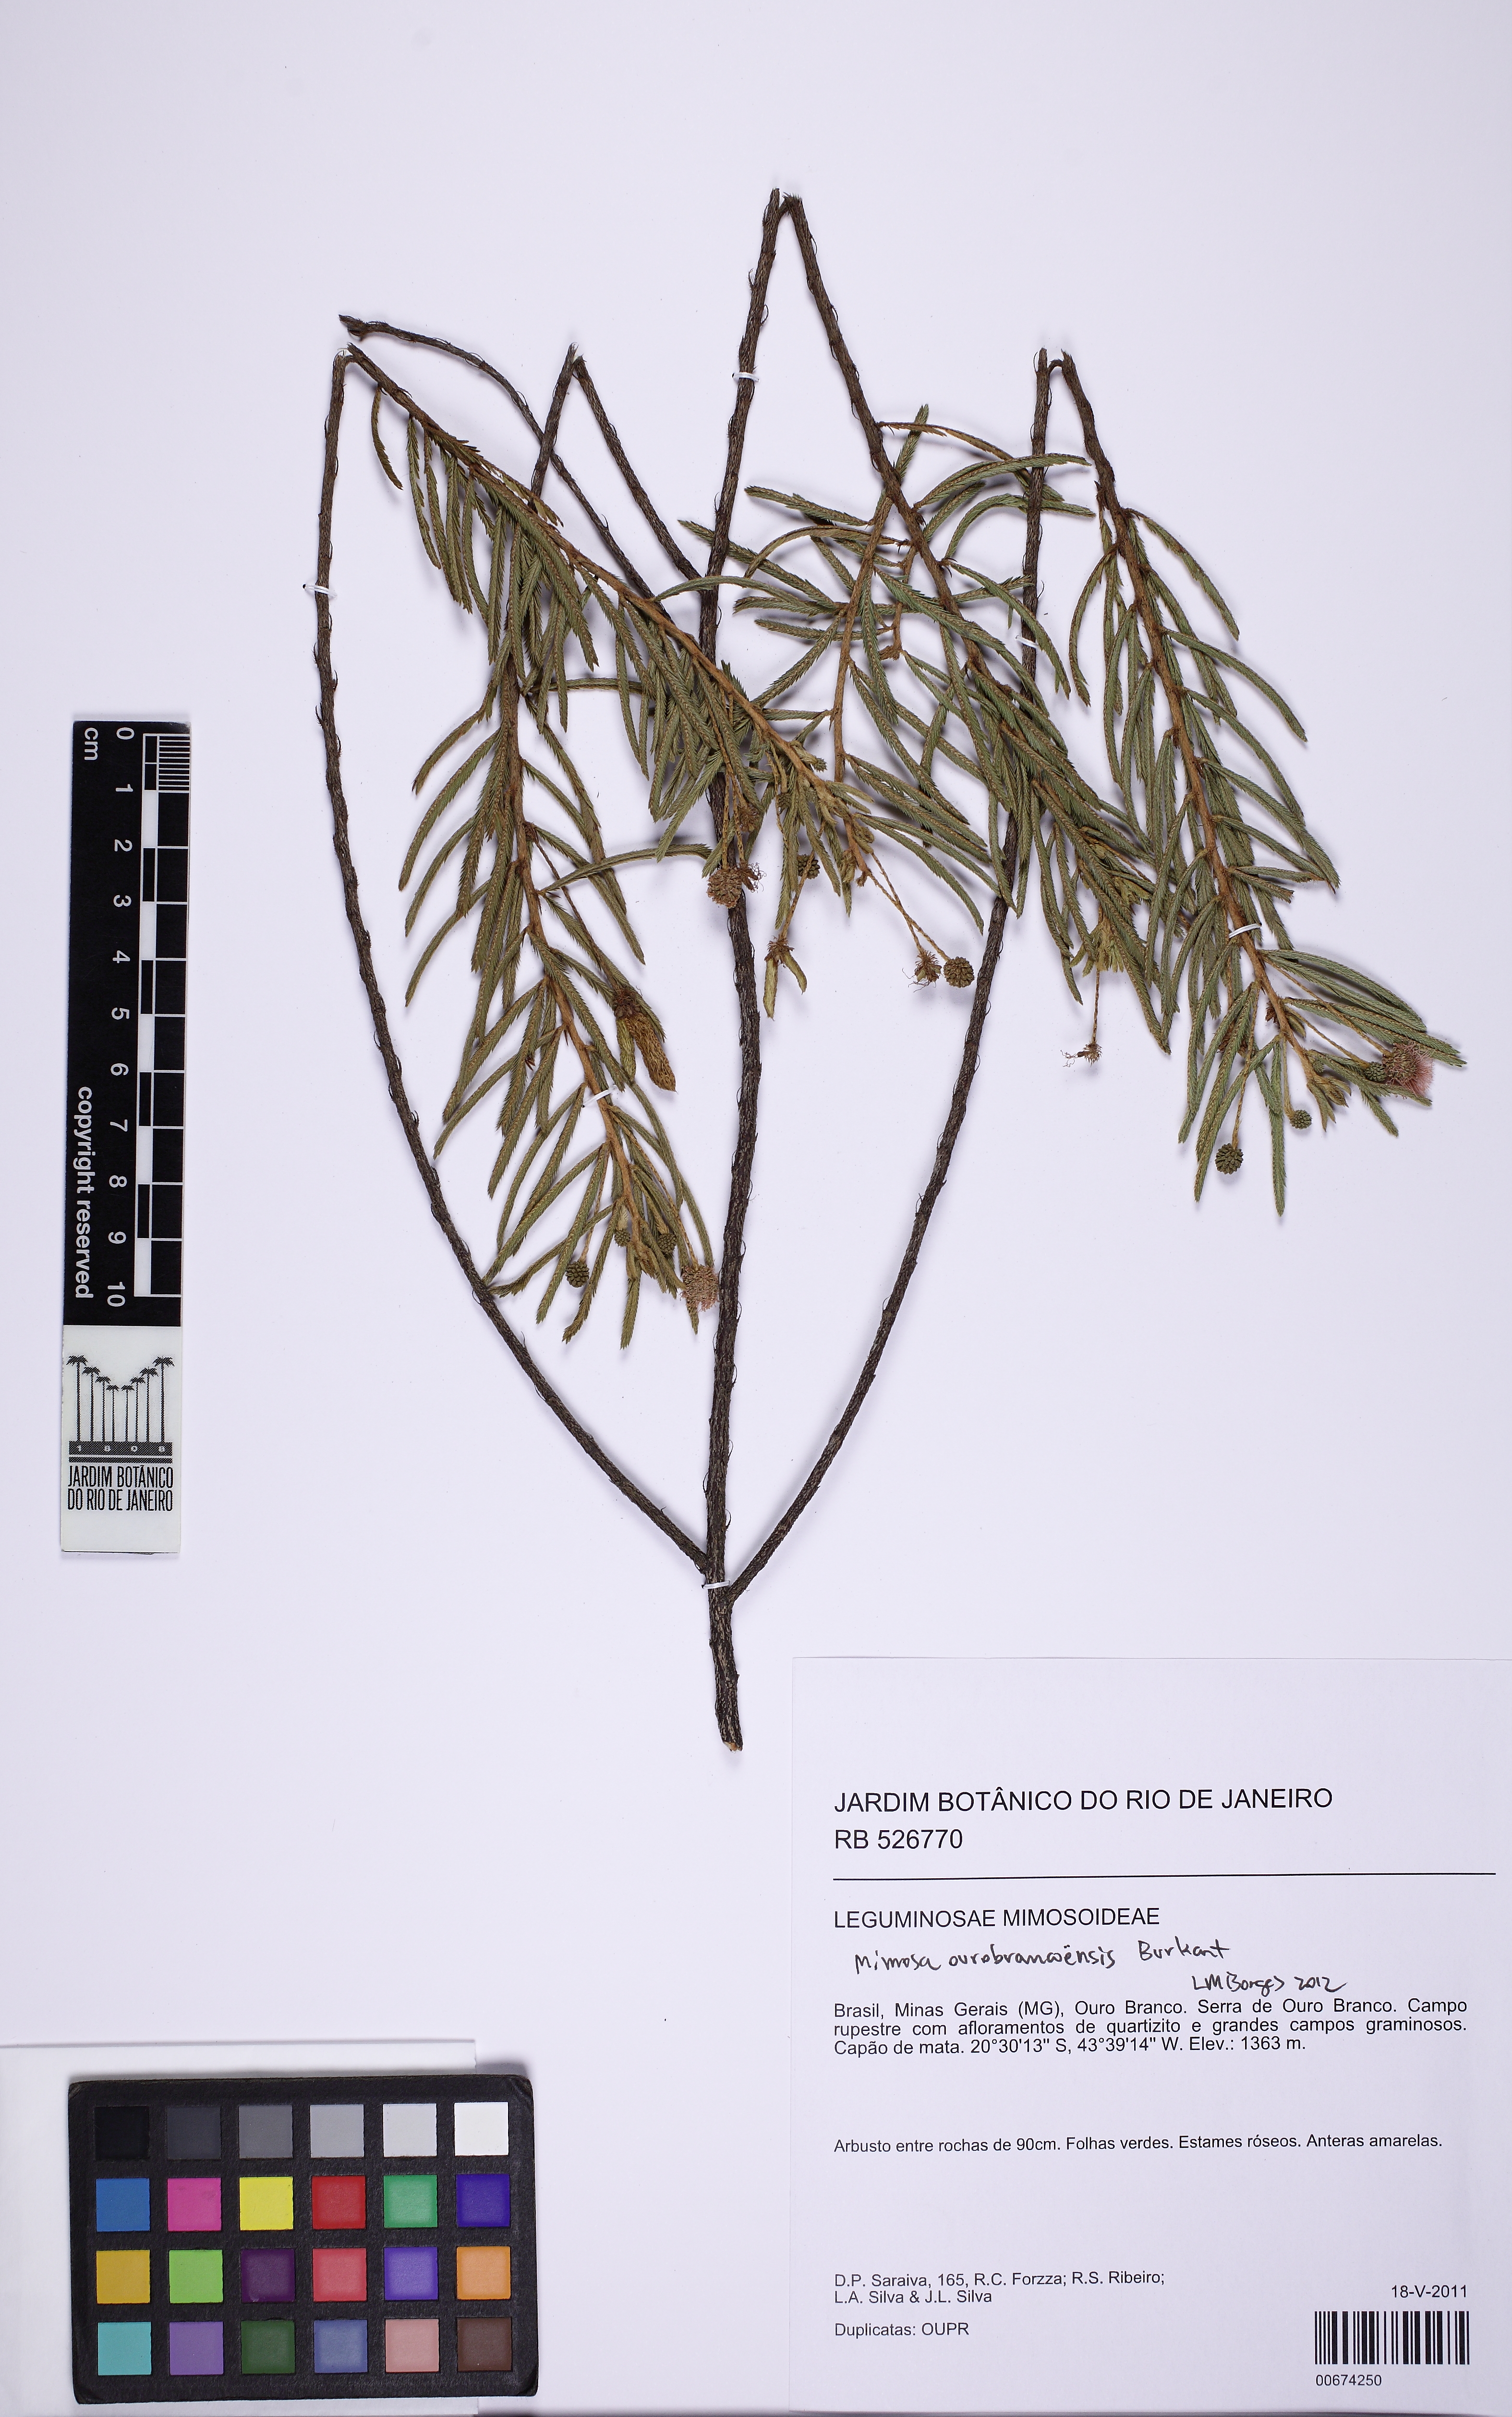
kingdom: Plantae
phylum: Tracheophyta
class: Magnoliopsida
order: Fabales
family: Fabaceae
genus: Mimosa
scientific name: Mimosa ourobrancoensis
